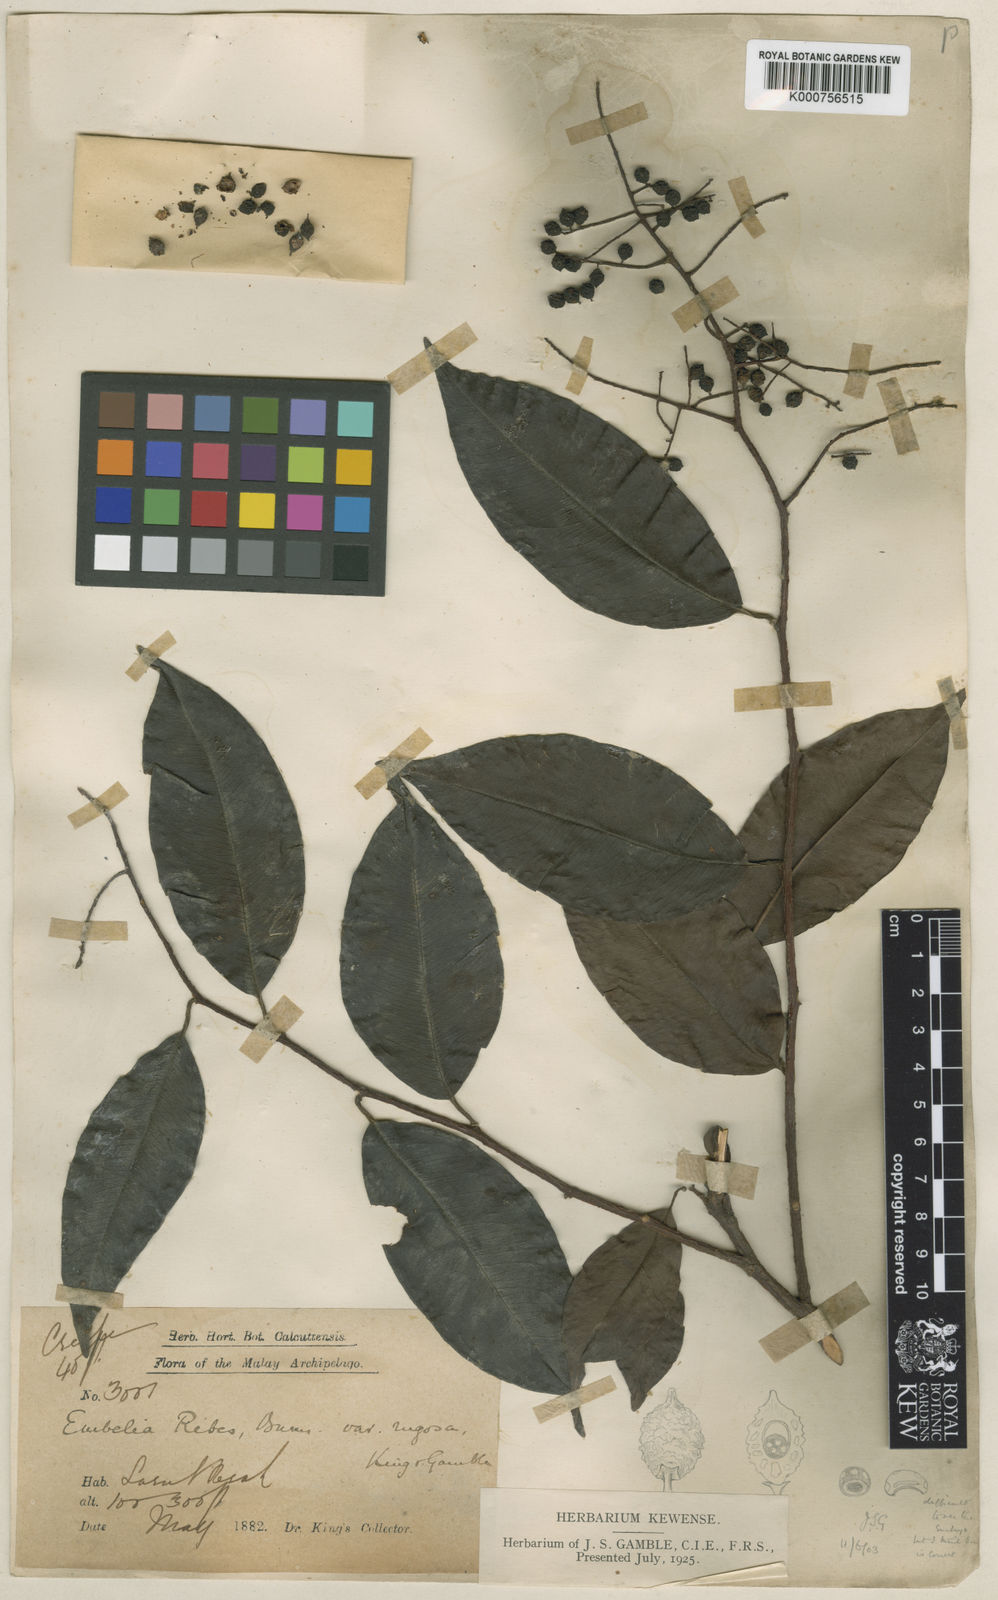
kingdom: Plantae
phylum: Tracheophyta
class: Magnoliopsida
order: Ericales
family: Primulaceae
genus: Embelia
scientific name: Embelia rugosa
